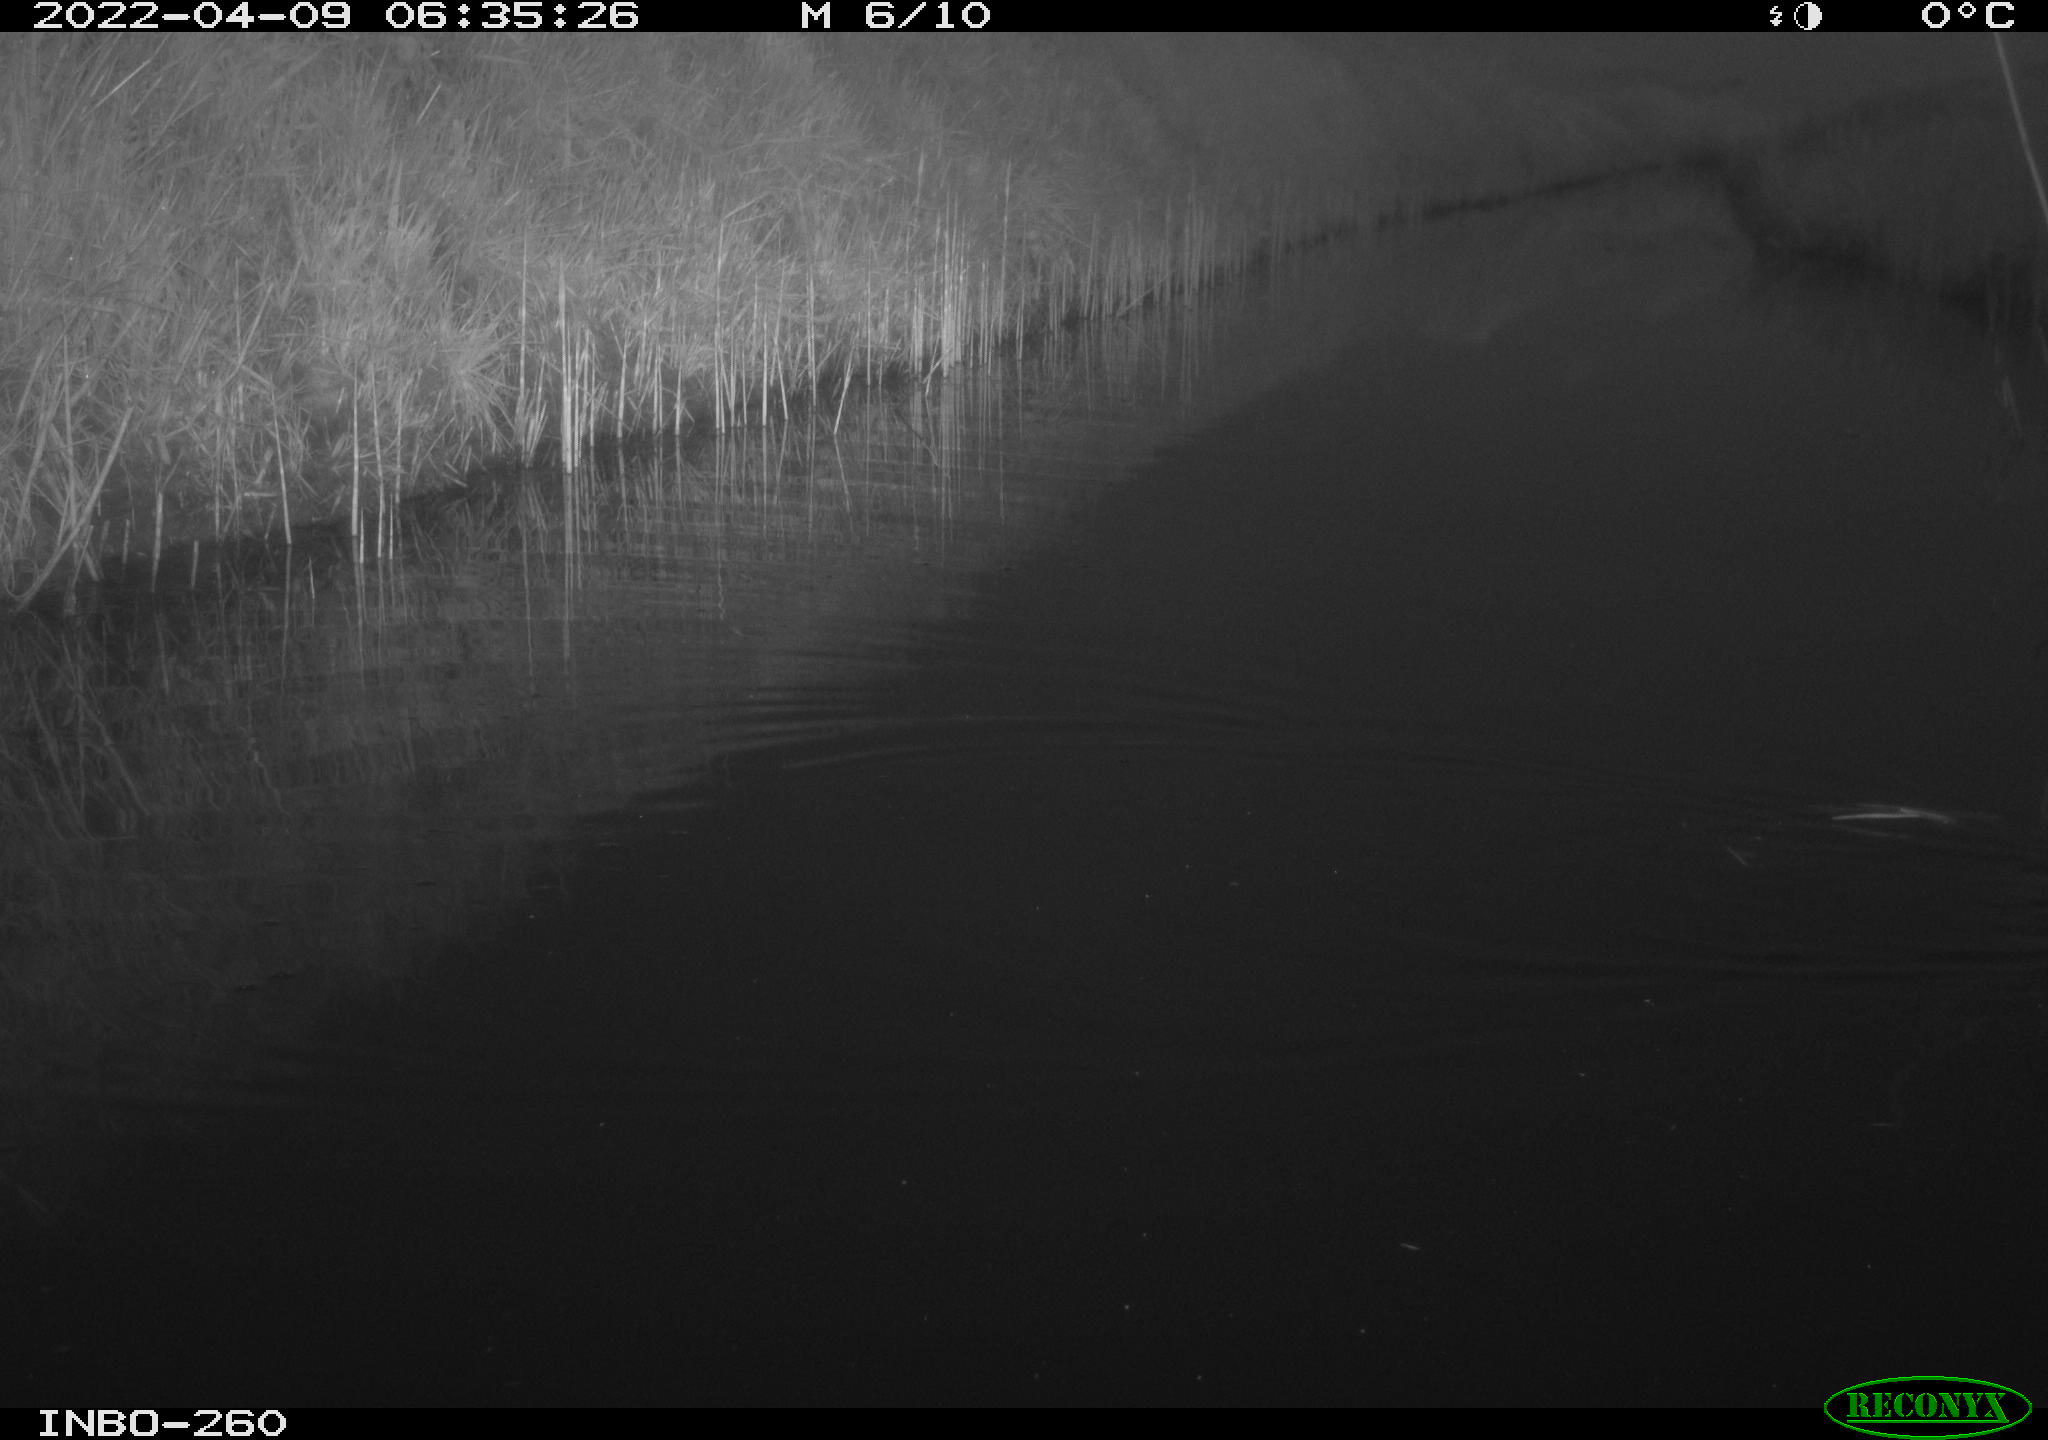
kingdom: Animalia
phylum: Chordata
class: Mammalia
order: Rodentia
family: Muridae
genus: Rattus
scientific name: Rattus norvegicus
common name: Brown rat
